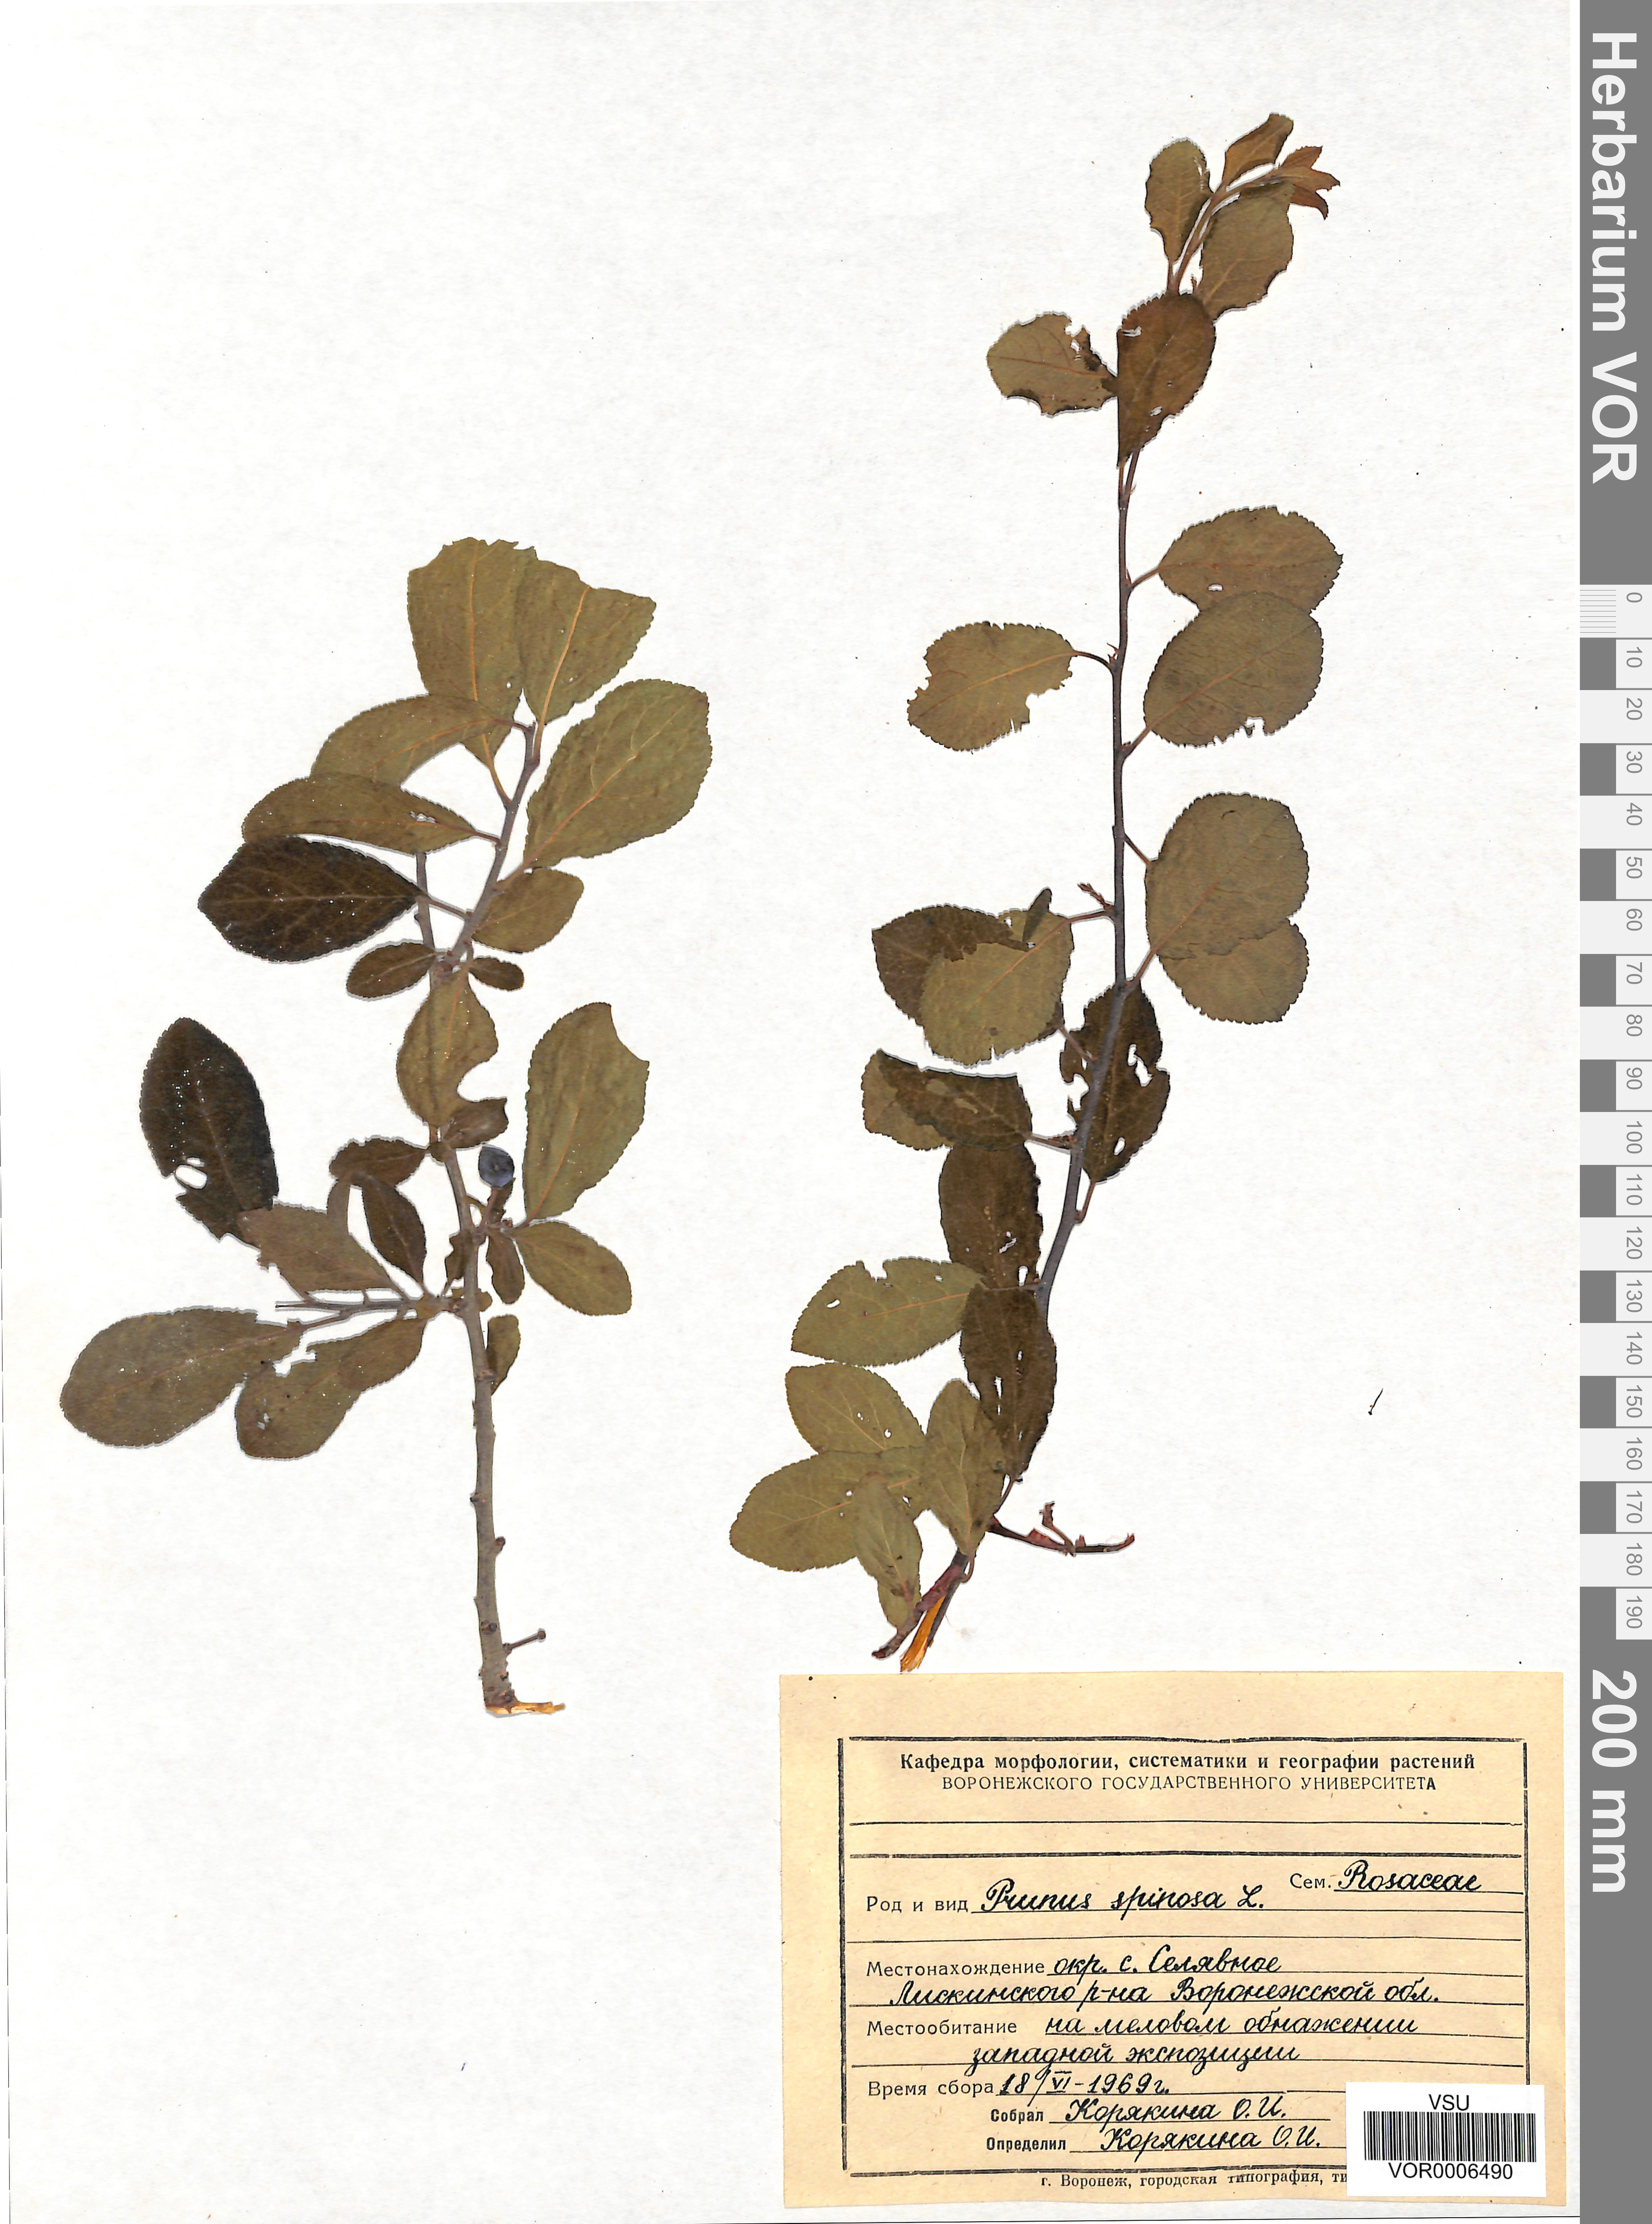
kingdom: Plantae
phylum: Tracheophyta
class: Magnoliopsida
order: Rosales
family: Rosaceae
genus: Prunus
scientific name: Prunus spinosa
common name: Blackthorn
